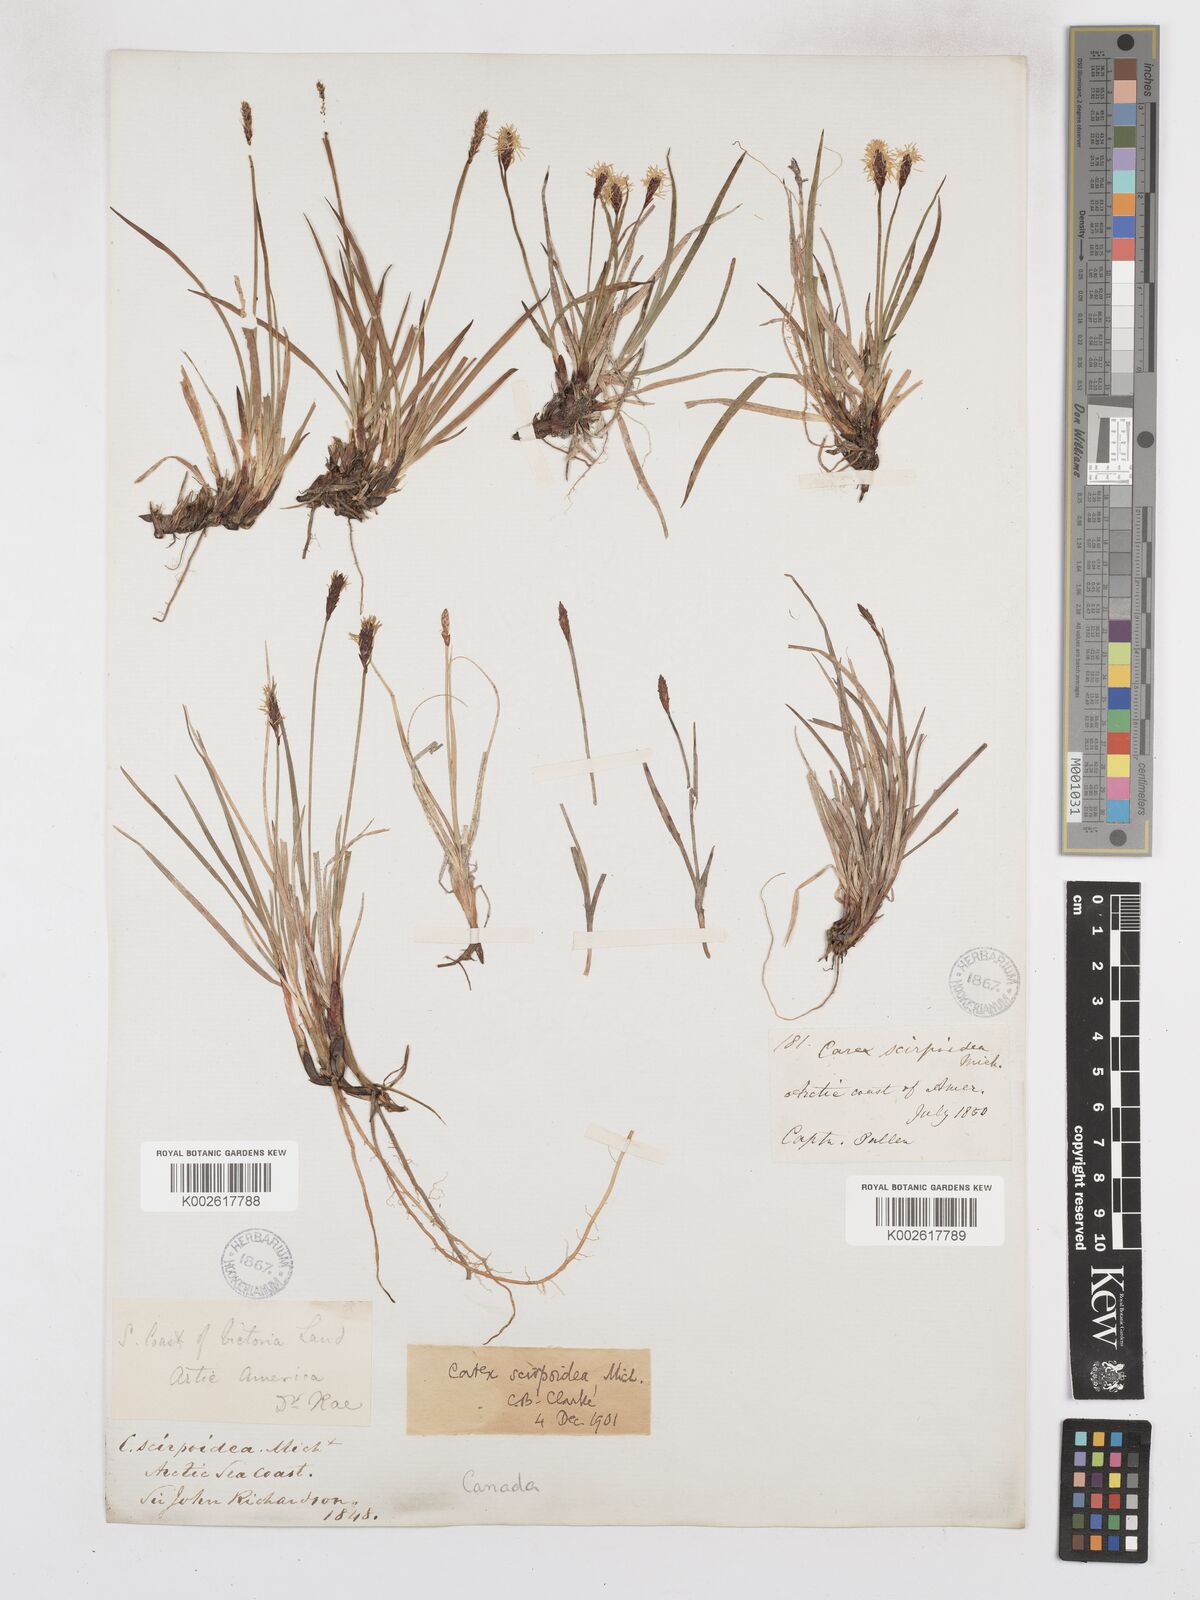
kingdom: Plantae
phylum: Tracheophyta
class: Liliopsida
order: Poales
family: Cyperaceae
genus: Carex
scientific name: Carex scirpoidea
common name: Canada single-spike sedge
